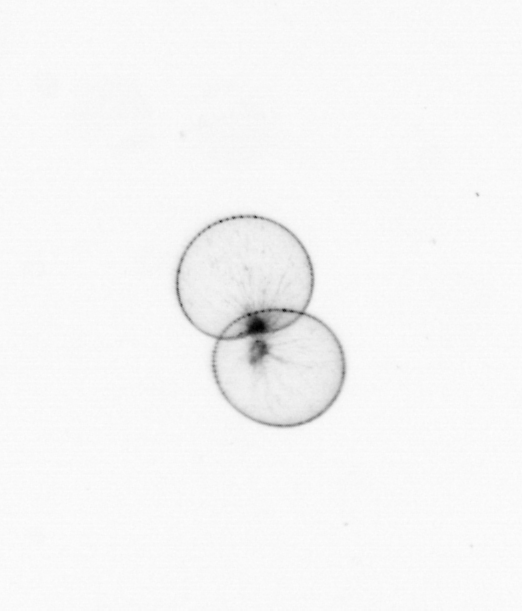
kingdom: Chromista
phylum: Myzozoa
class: Dinophyceae
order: Noctilucales
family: Noctilucaceae
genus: Noctiluca
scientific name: Noctiluca scintillans
